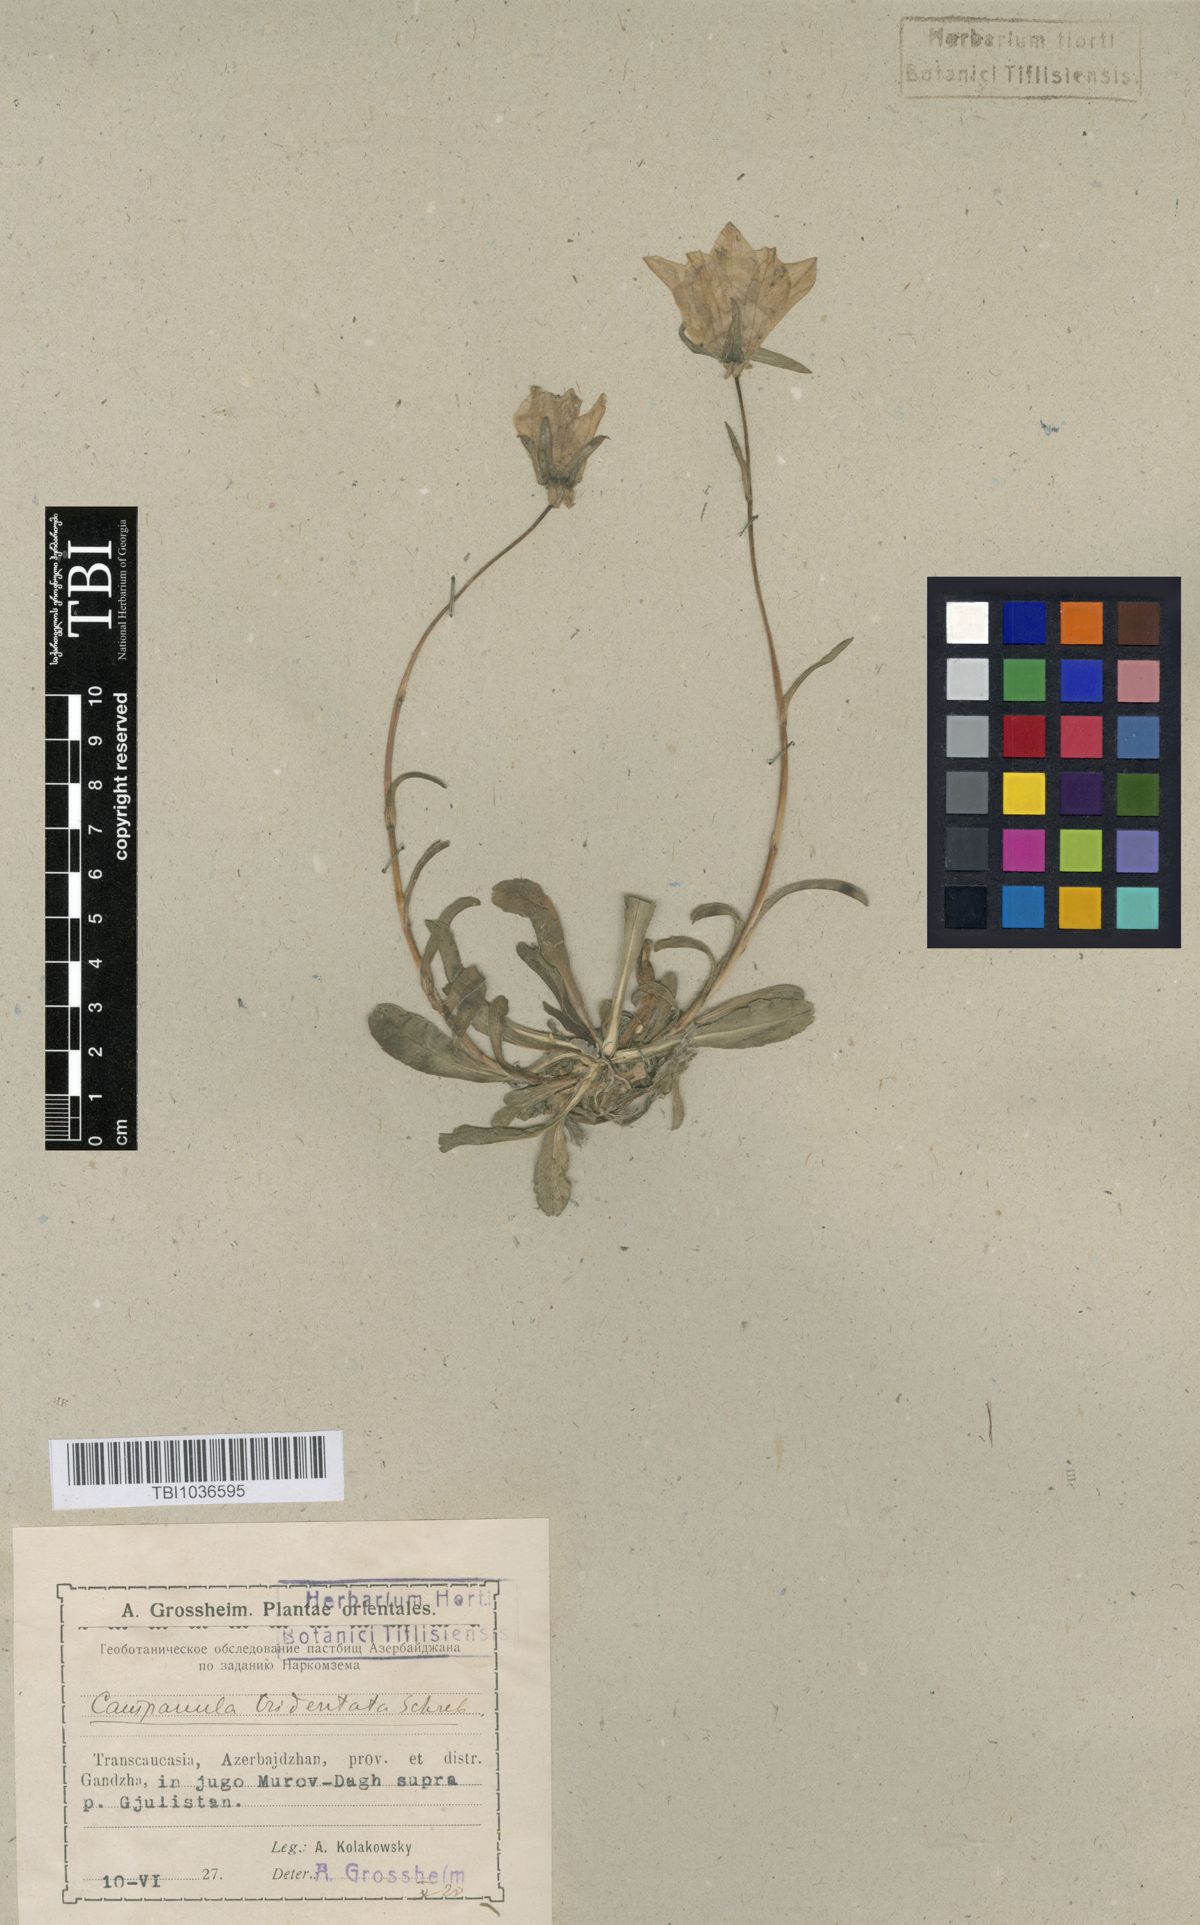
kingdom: Plantae
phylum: Tracheophyta
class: Magnoliopsida
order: Asterales
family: Campanulaceae
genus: Campanula
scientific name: Campanula tridentata
